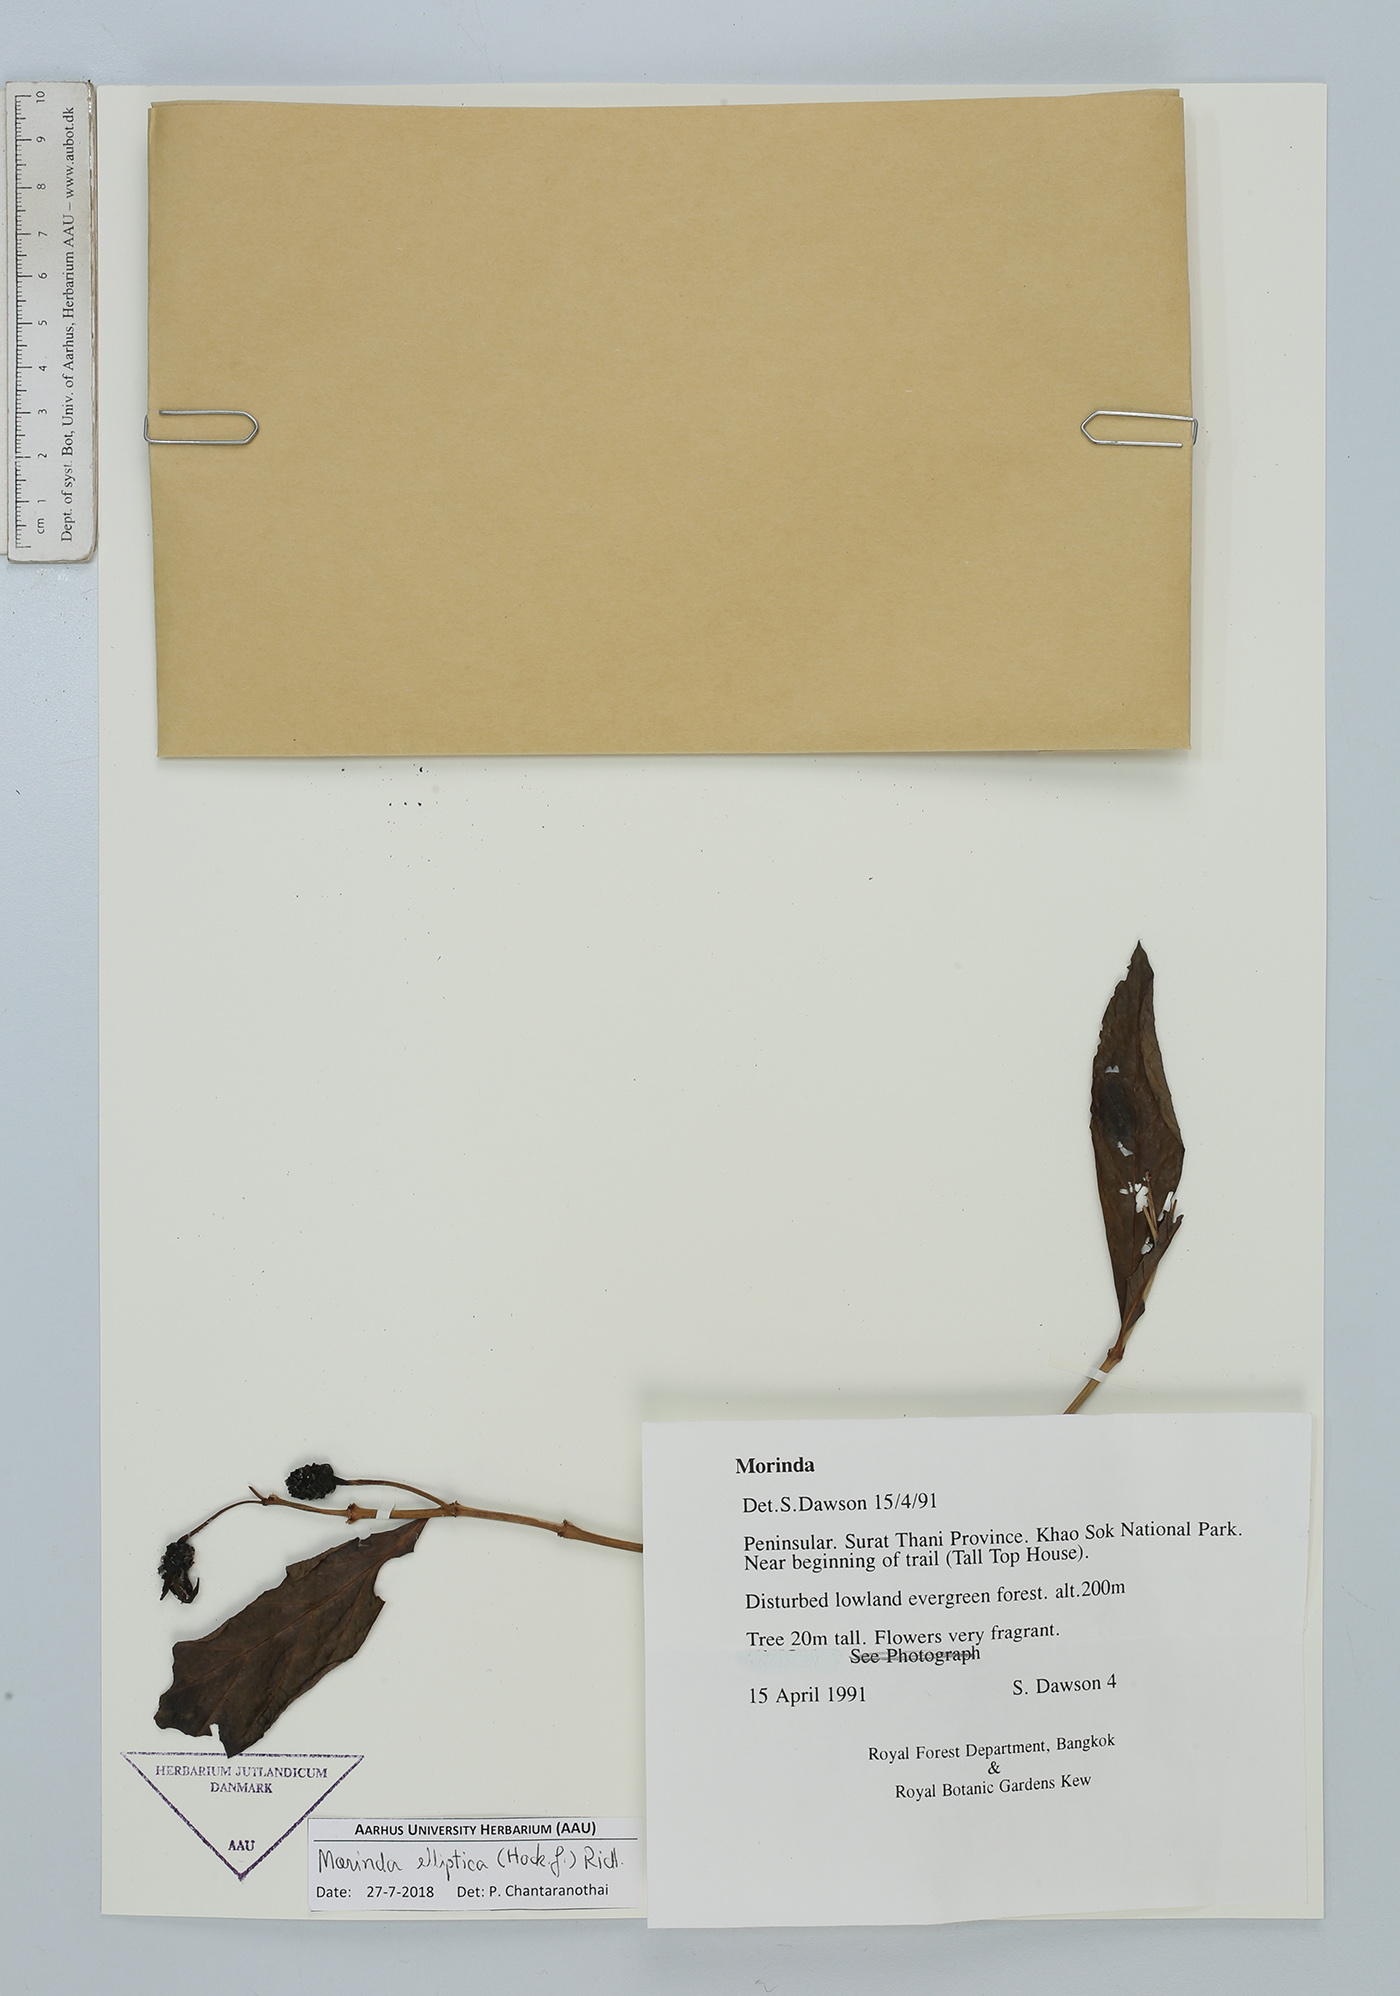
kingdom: Plantae
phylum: Tracheophyta
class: Magnoliopsida
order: Gentianales
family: Rubiaceae
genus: Morinda
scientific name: Morinda elliptica
